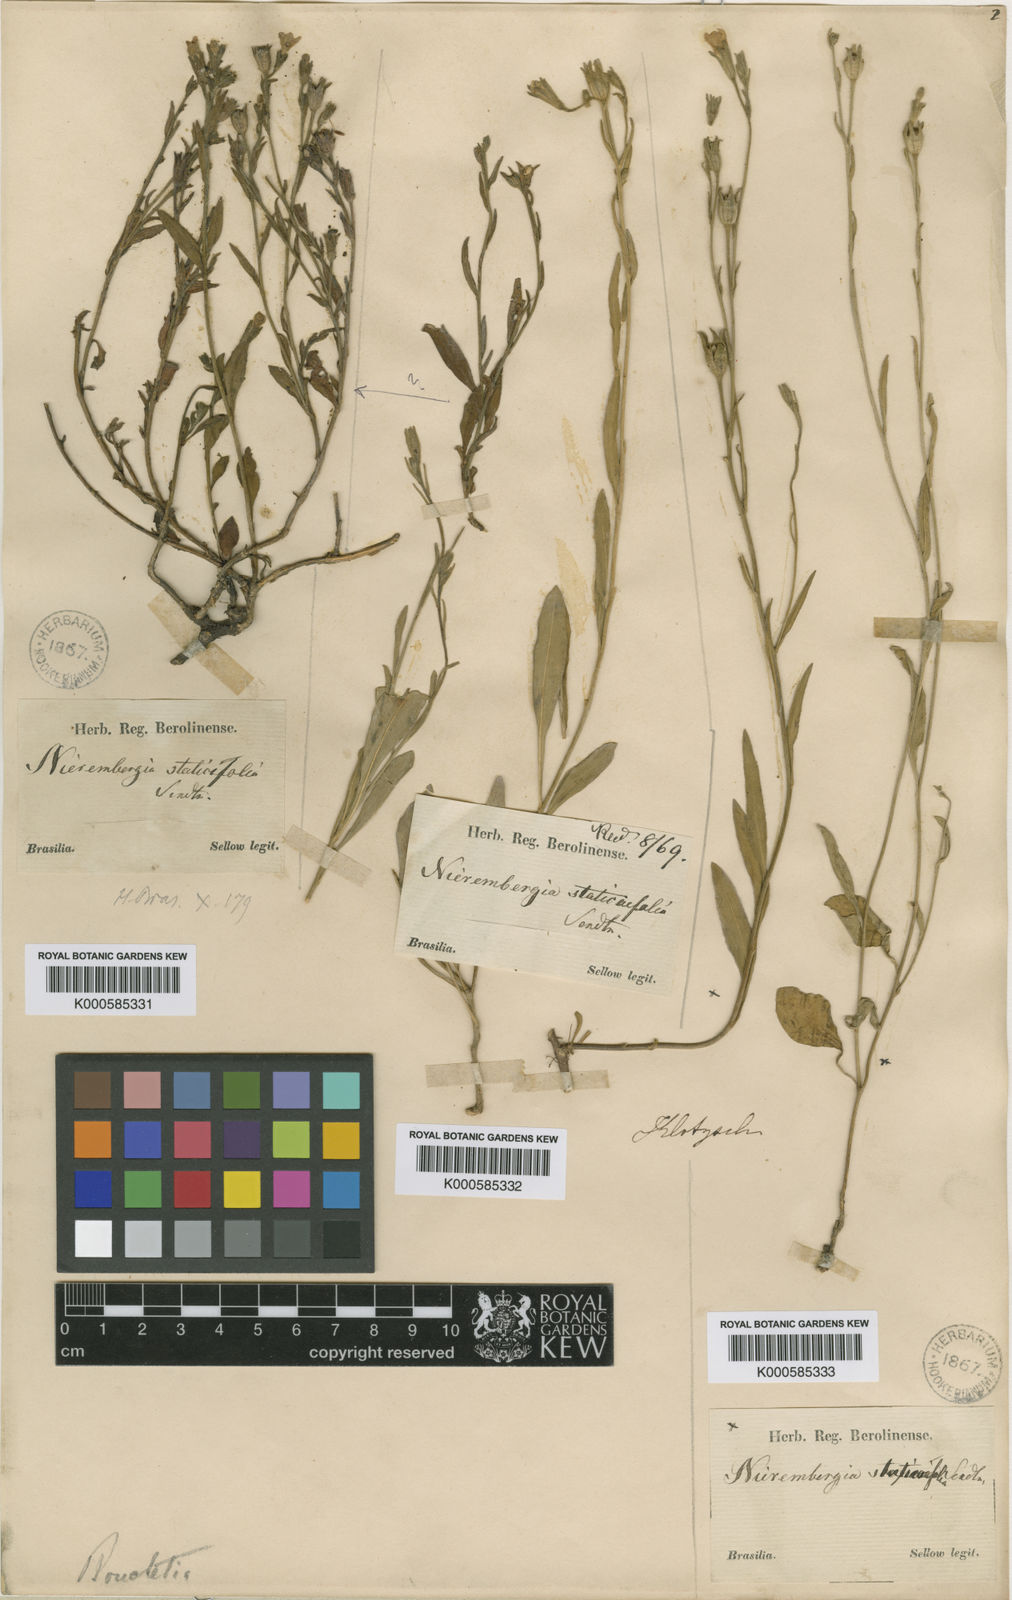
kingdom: Plantae
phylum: Tracheophyta
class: Magnoliopsida
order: Solanales
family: Solanaceae
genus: Salpiglossis
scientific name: Salpiglossis anomala
